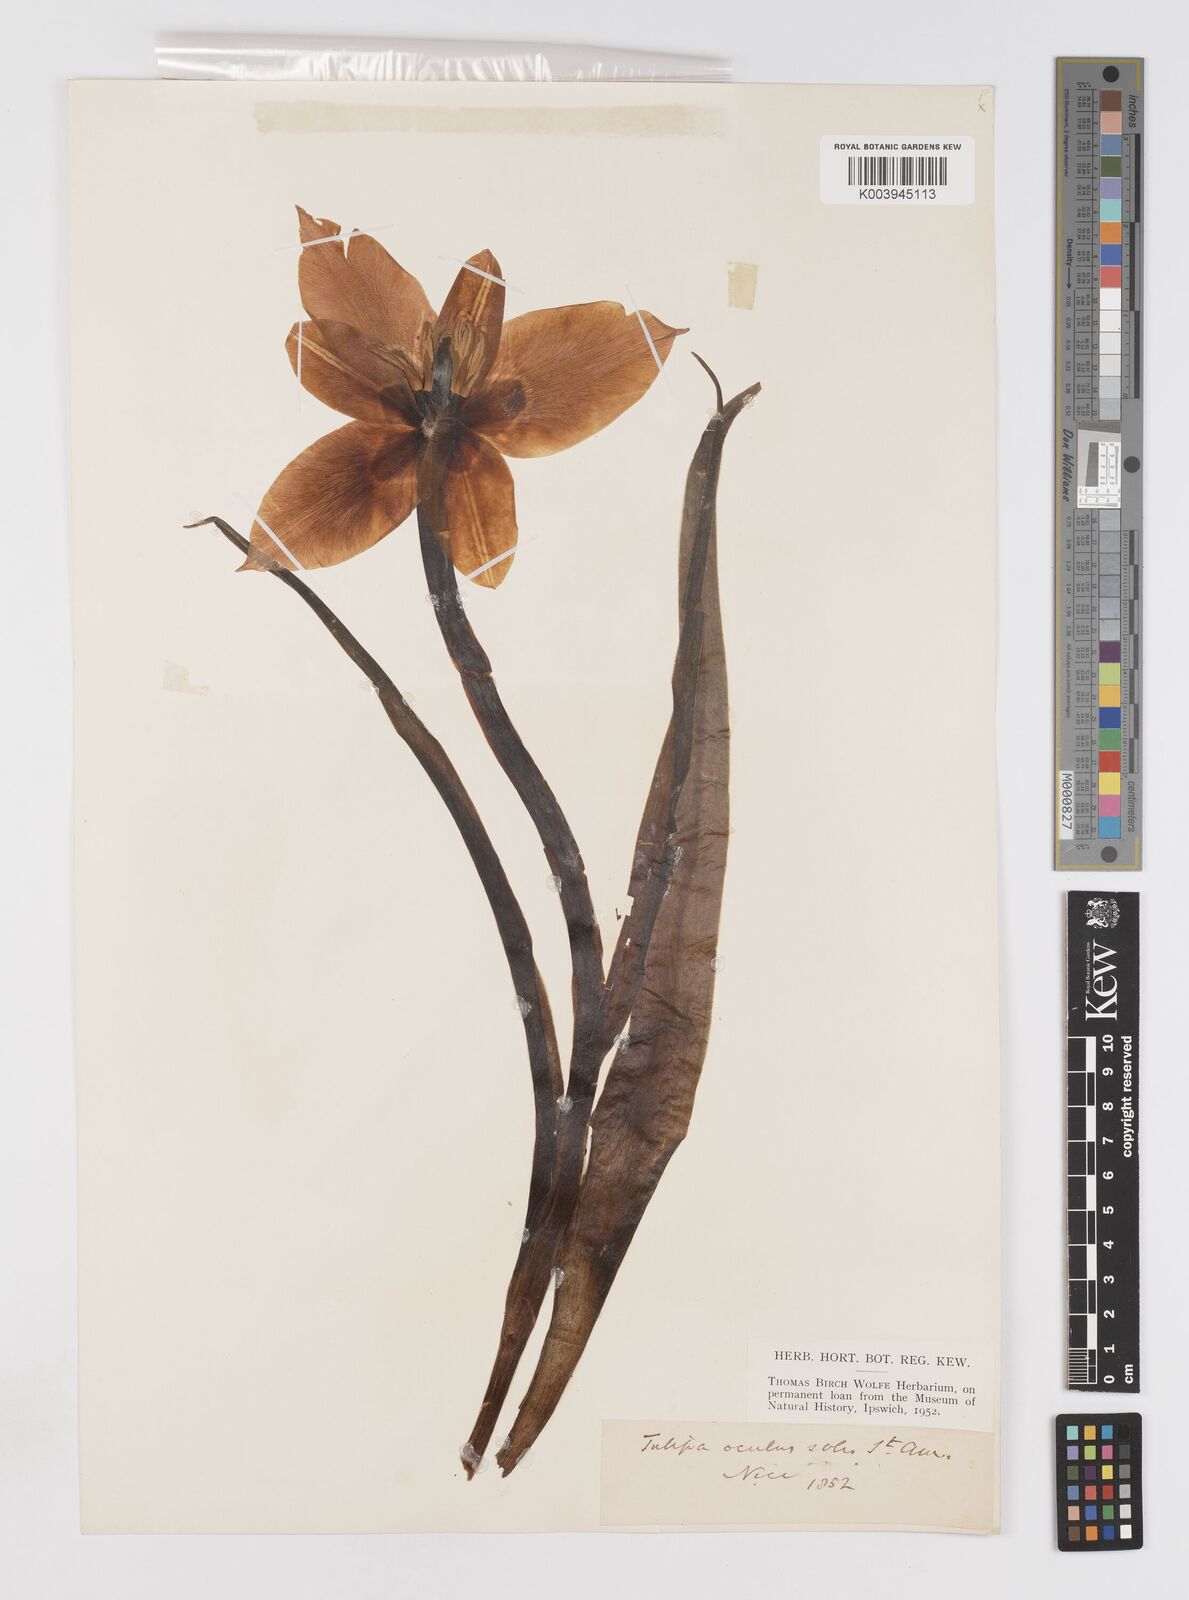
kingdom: Plantae
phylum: Tracheophyta
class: Liliopsida
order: Liliales
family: Liliaceae
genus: Tulipa
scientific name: Tulipa
